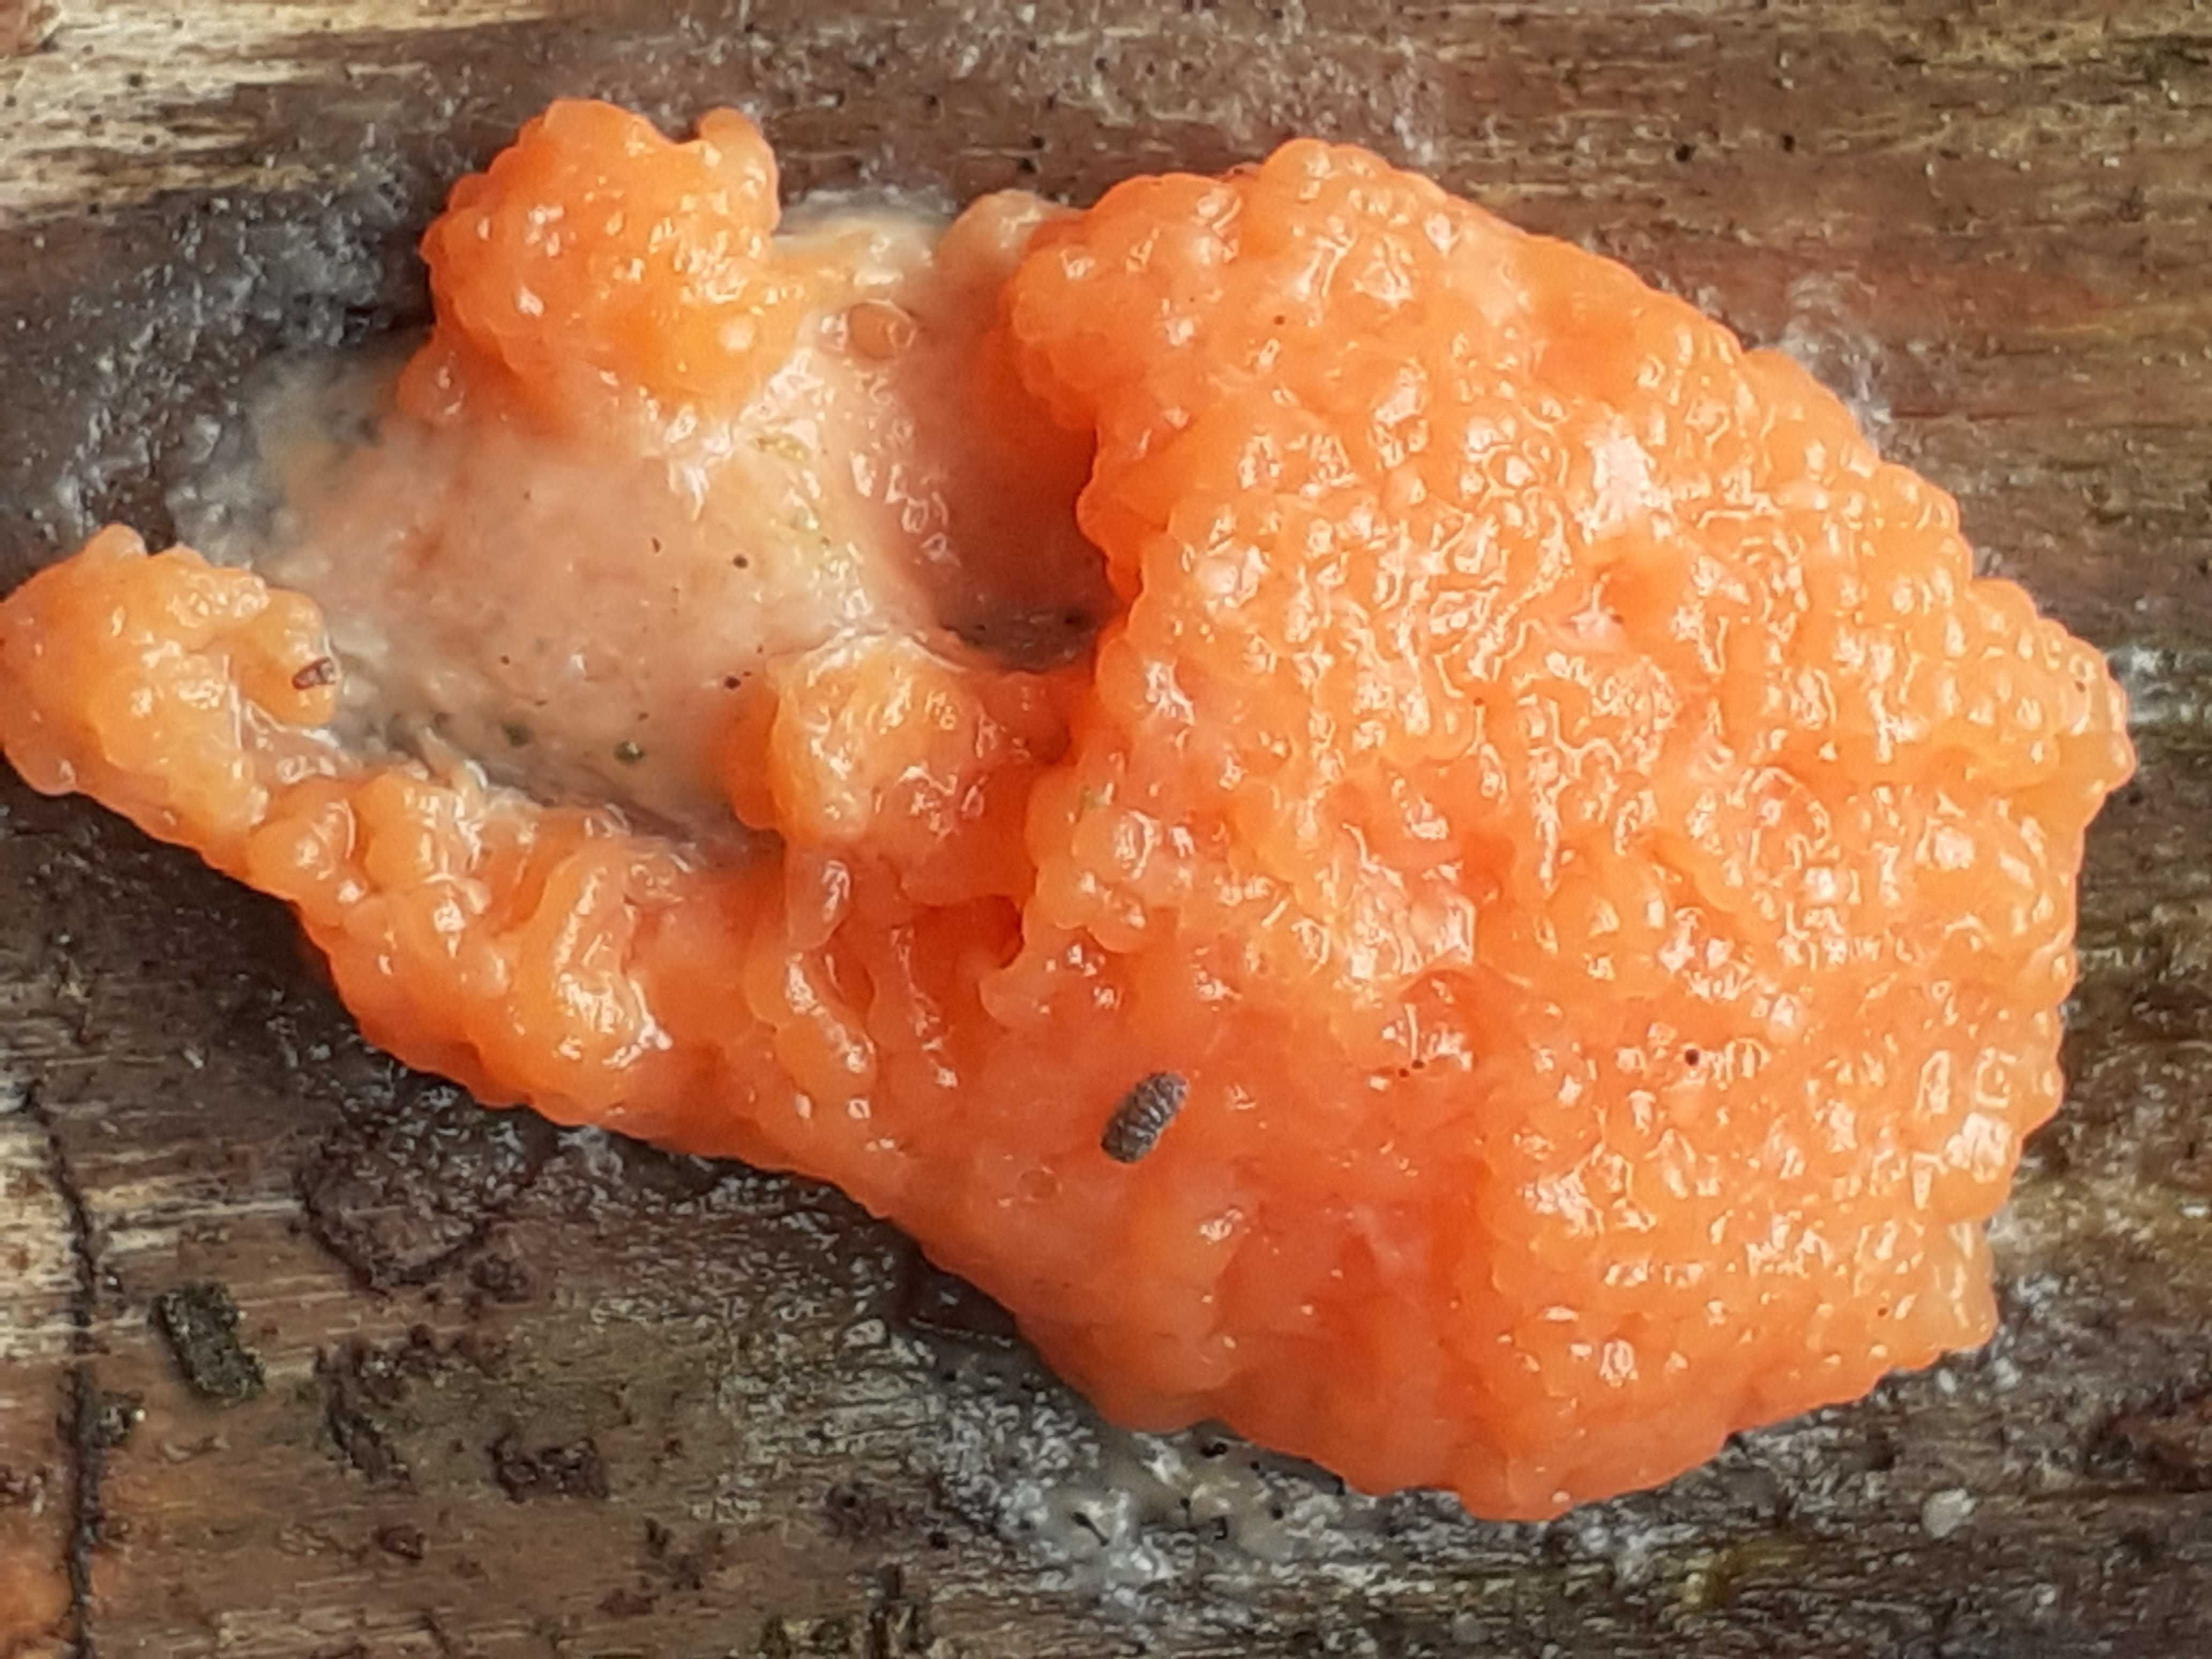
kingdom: Protozoa
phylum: Mycetozoa
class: Myxomycetes
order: Cribrariales
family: Tubiferaceae
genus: Tubifera
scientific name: Tubifera ferruginosa
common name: kanel-støvrør
